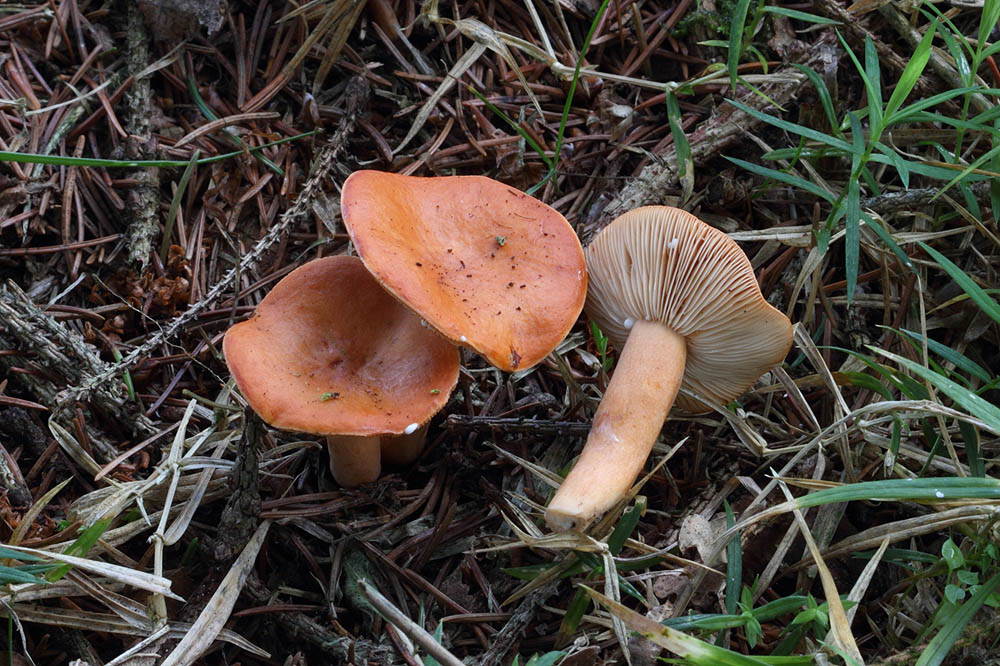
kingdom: Fungi
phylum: Basidiomycota
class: Agaricomycetes
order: Russulales
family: Russulaceae
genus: Lactarius
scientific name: Lactarius aurantiacus
